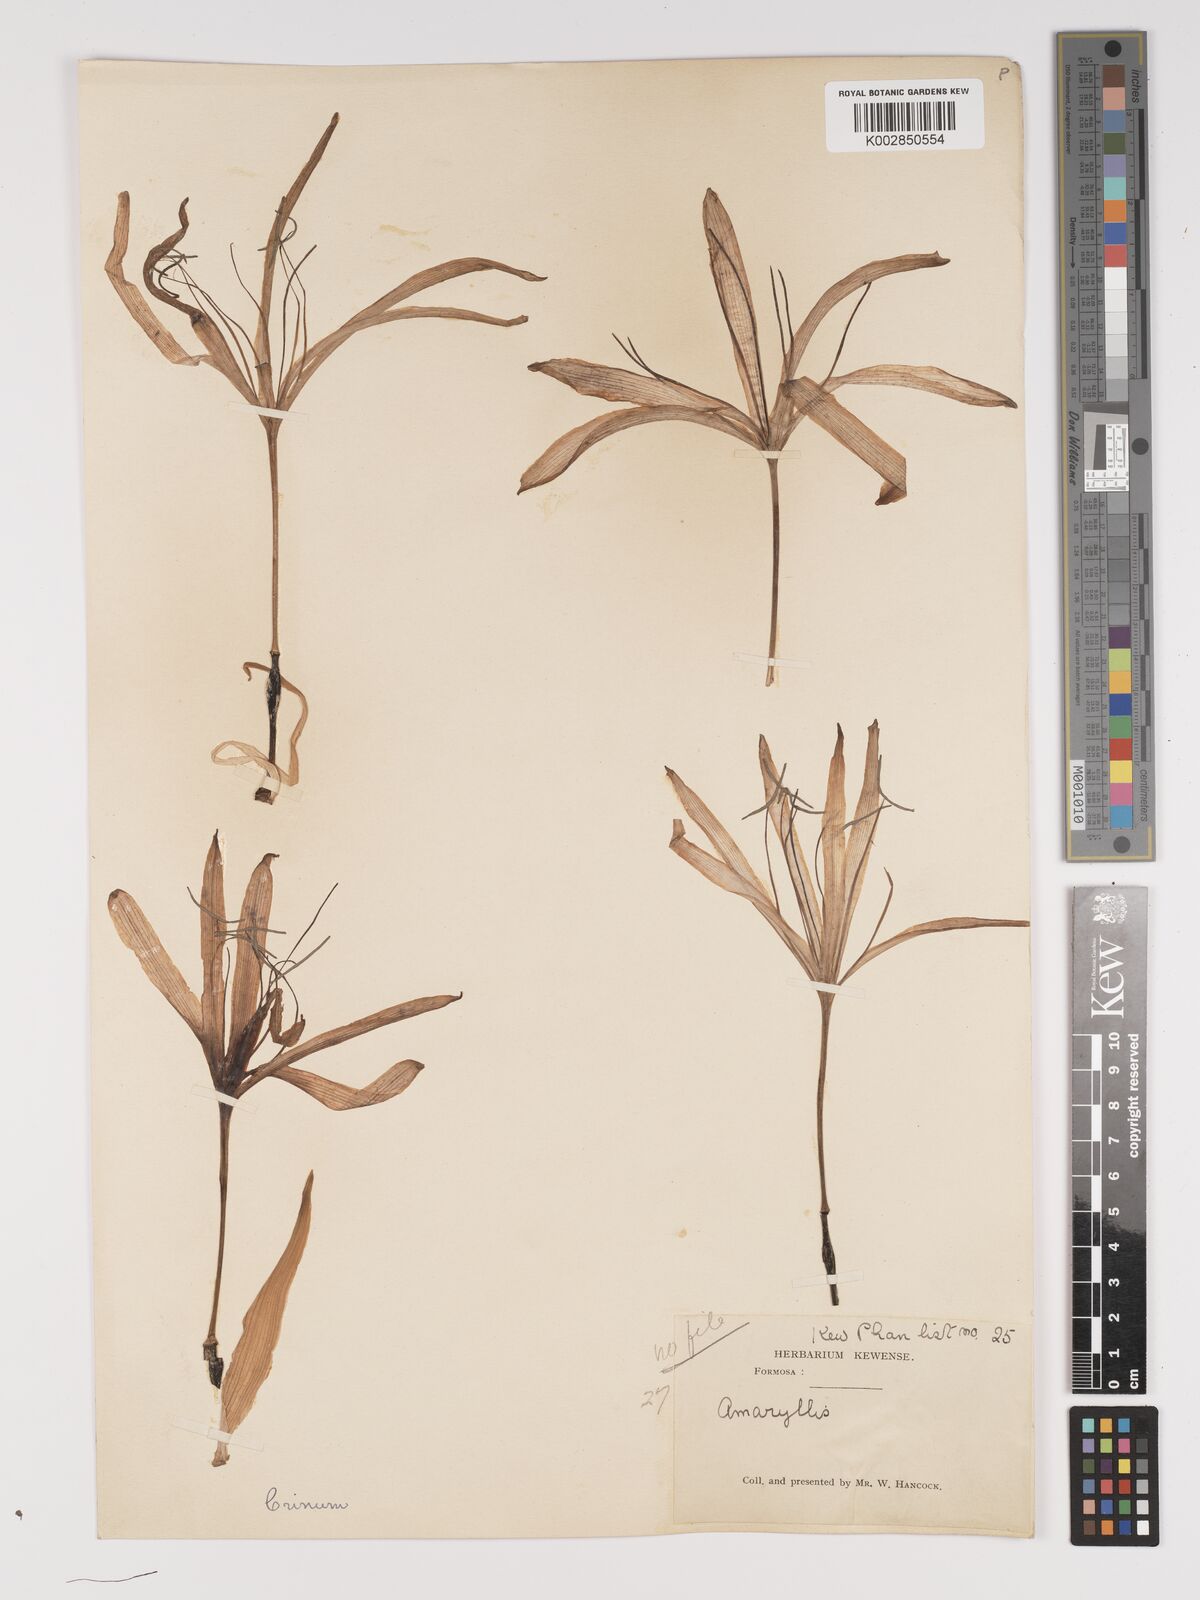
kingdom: Plantae
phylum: Tracheophyta
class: Liliopsida
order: Asparagales
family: Amaryllidaceae
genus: Crinum
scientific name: Crinum asiaticum
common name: Poisonbulb
